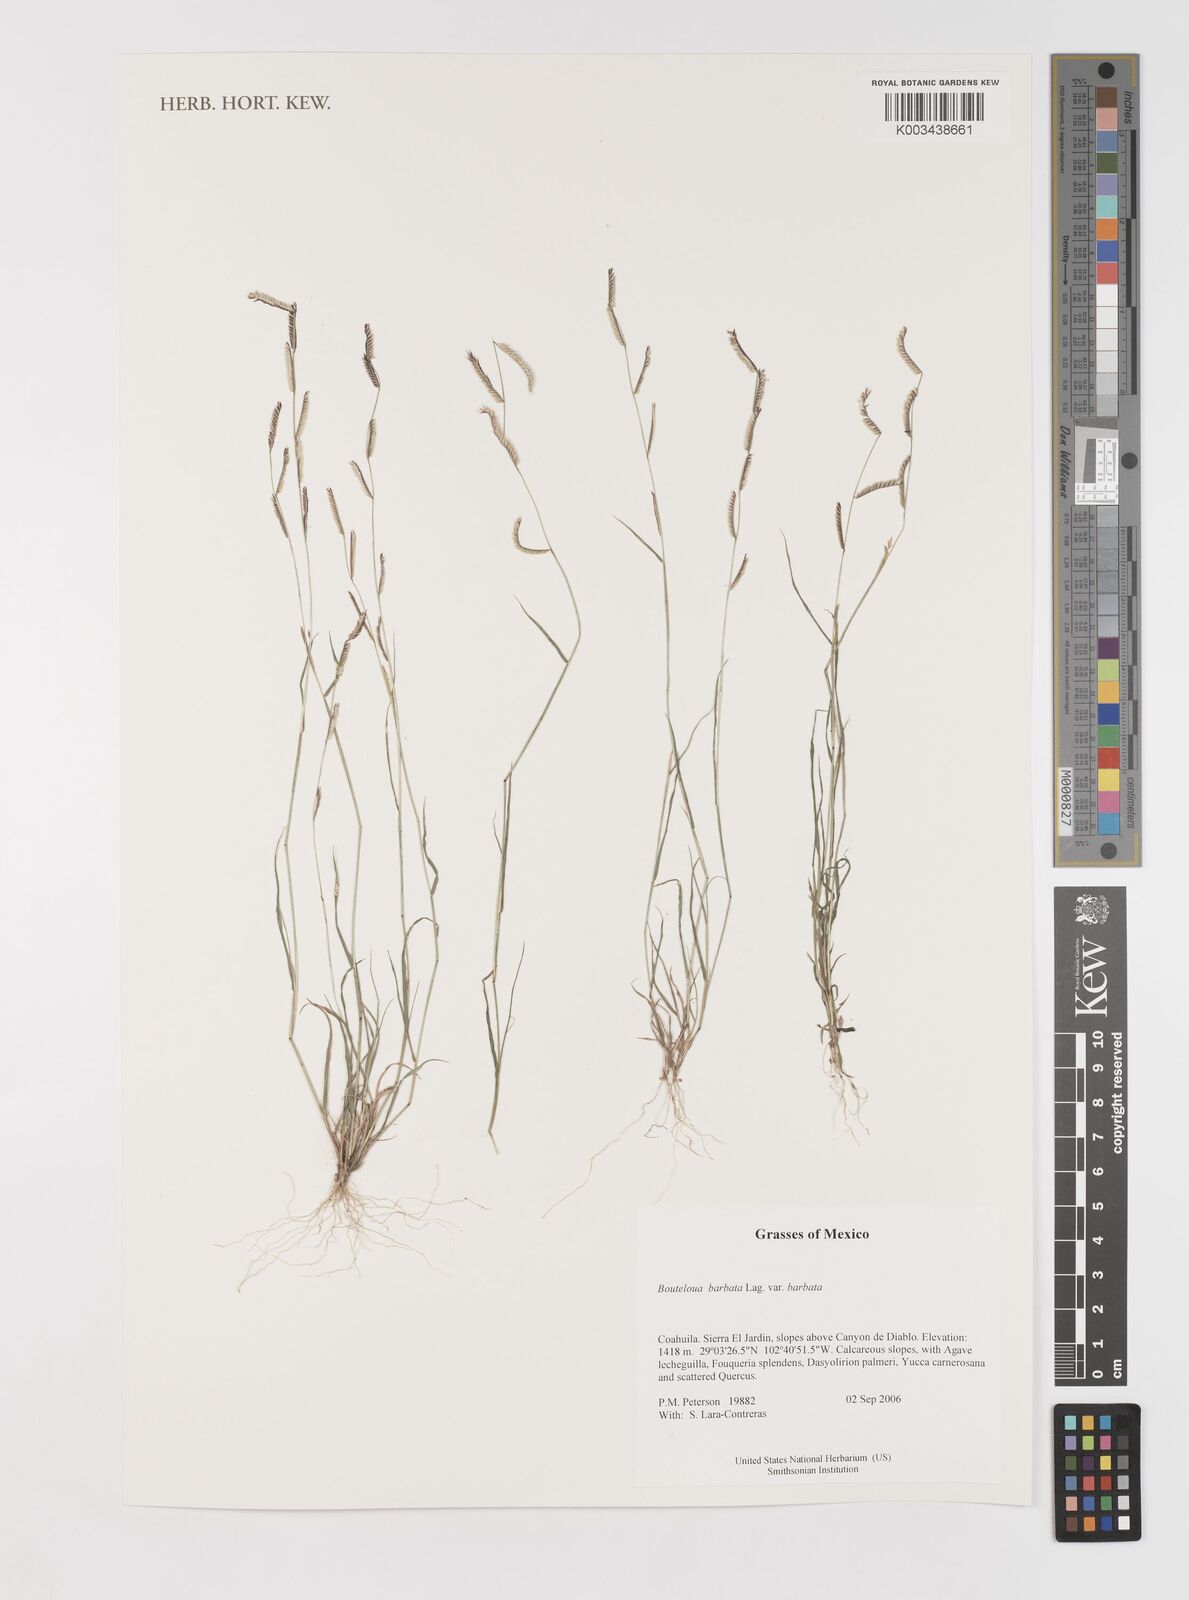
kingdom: Plantae
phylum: Tracheophyta
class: Liliopsida
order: Poales
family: Poaceae
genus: Bouteloua
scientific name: Bouteloua
